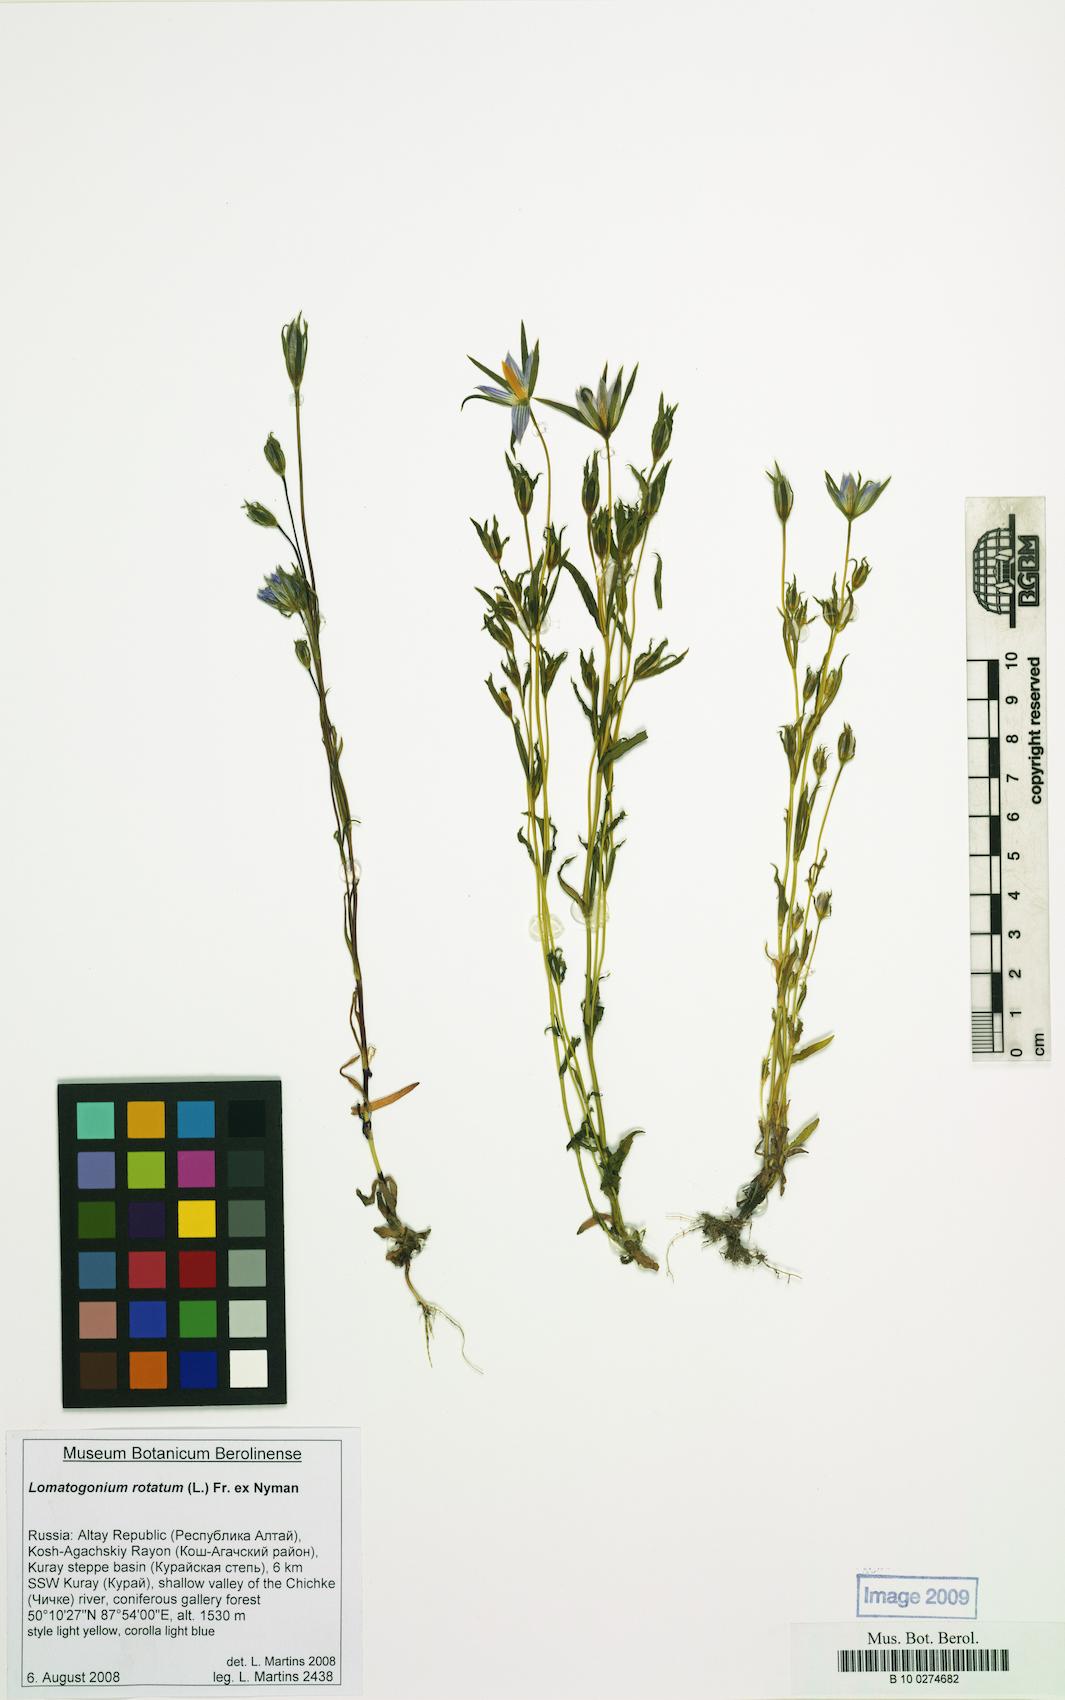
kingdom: Plantae
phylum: Tracheophyta
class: Magnoliopsida
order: Gentianales
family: Gentianaceae
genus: Lomatogonium
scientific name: Lomatogonium rotatum
